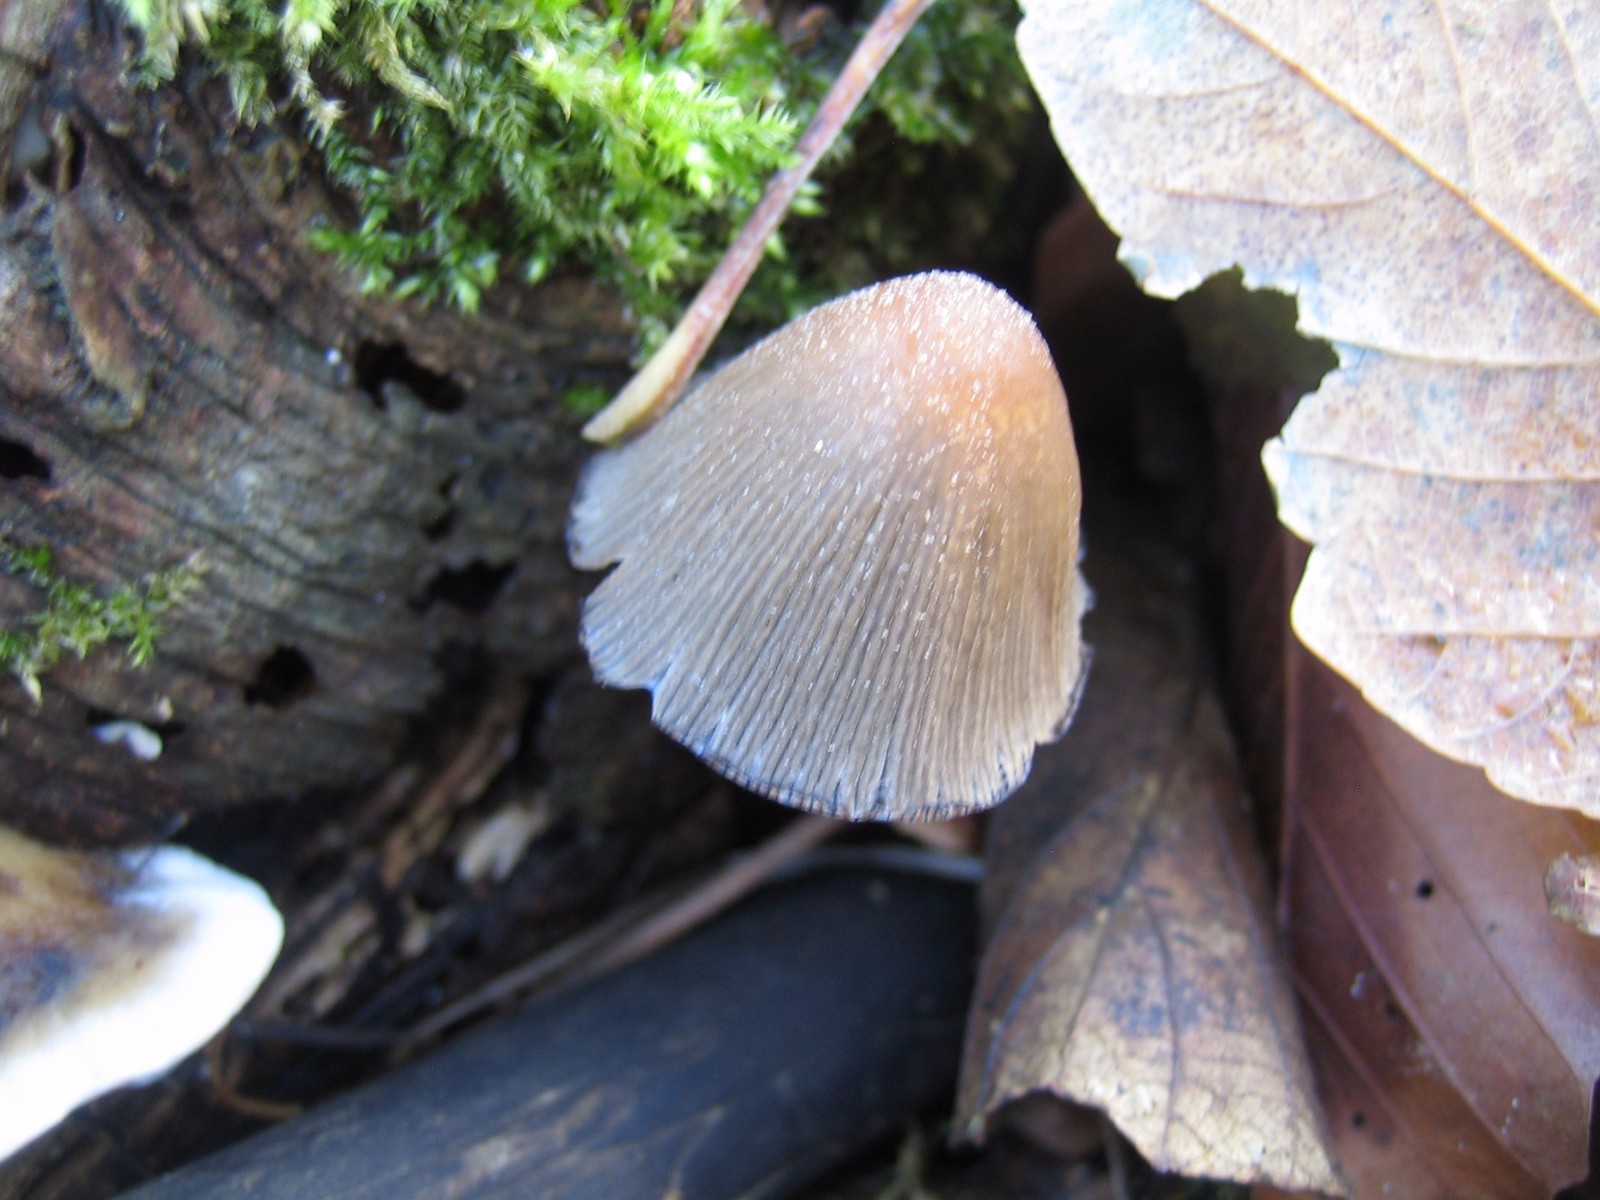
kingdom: Fungi
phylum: Basidiomycota
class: Agaricomycetes
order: Agaricales
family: Psathyrellaceae
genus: Coprinellus
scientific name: Coprinellus micaceus
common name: glimmer-blækhat
